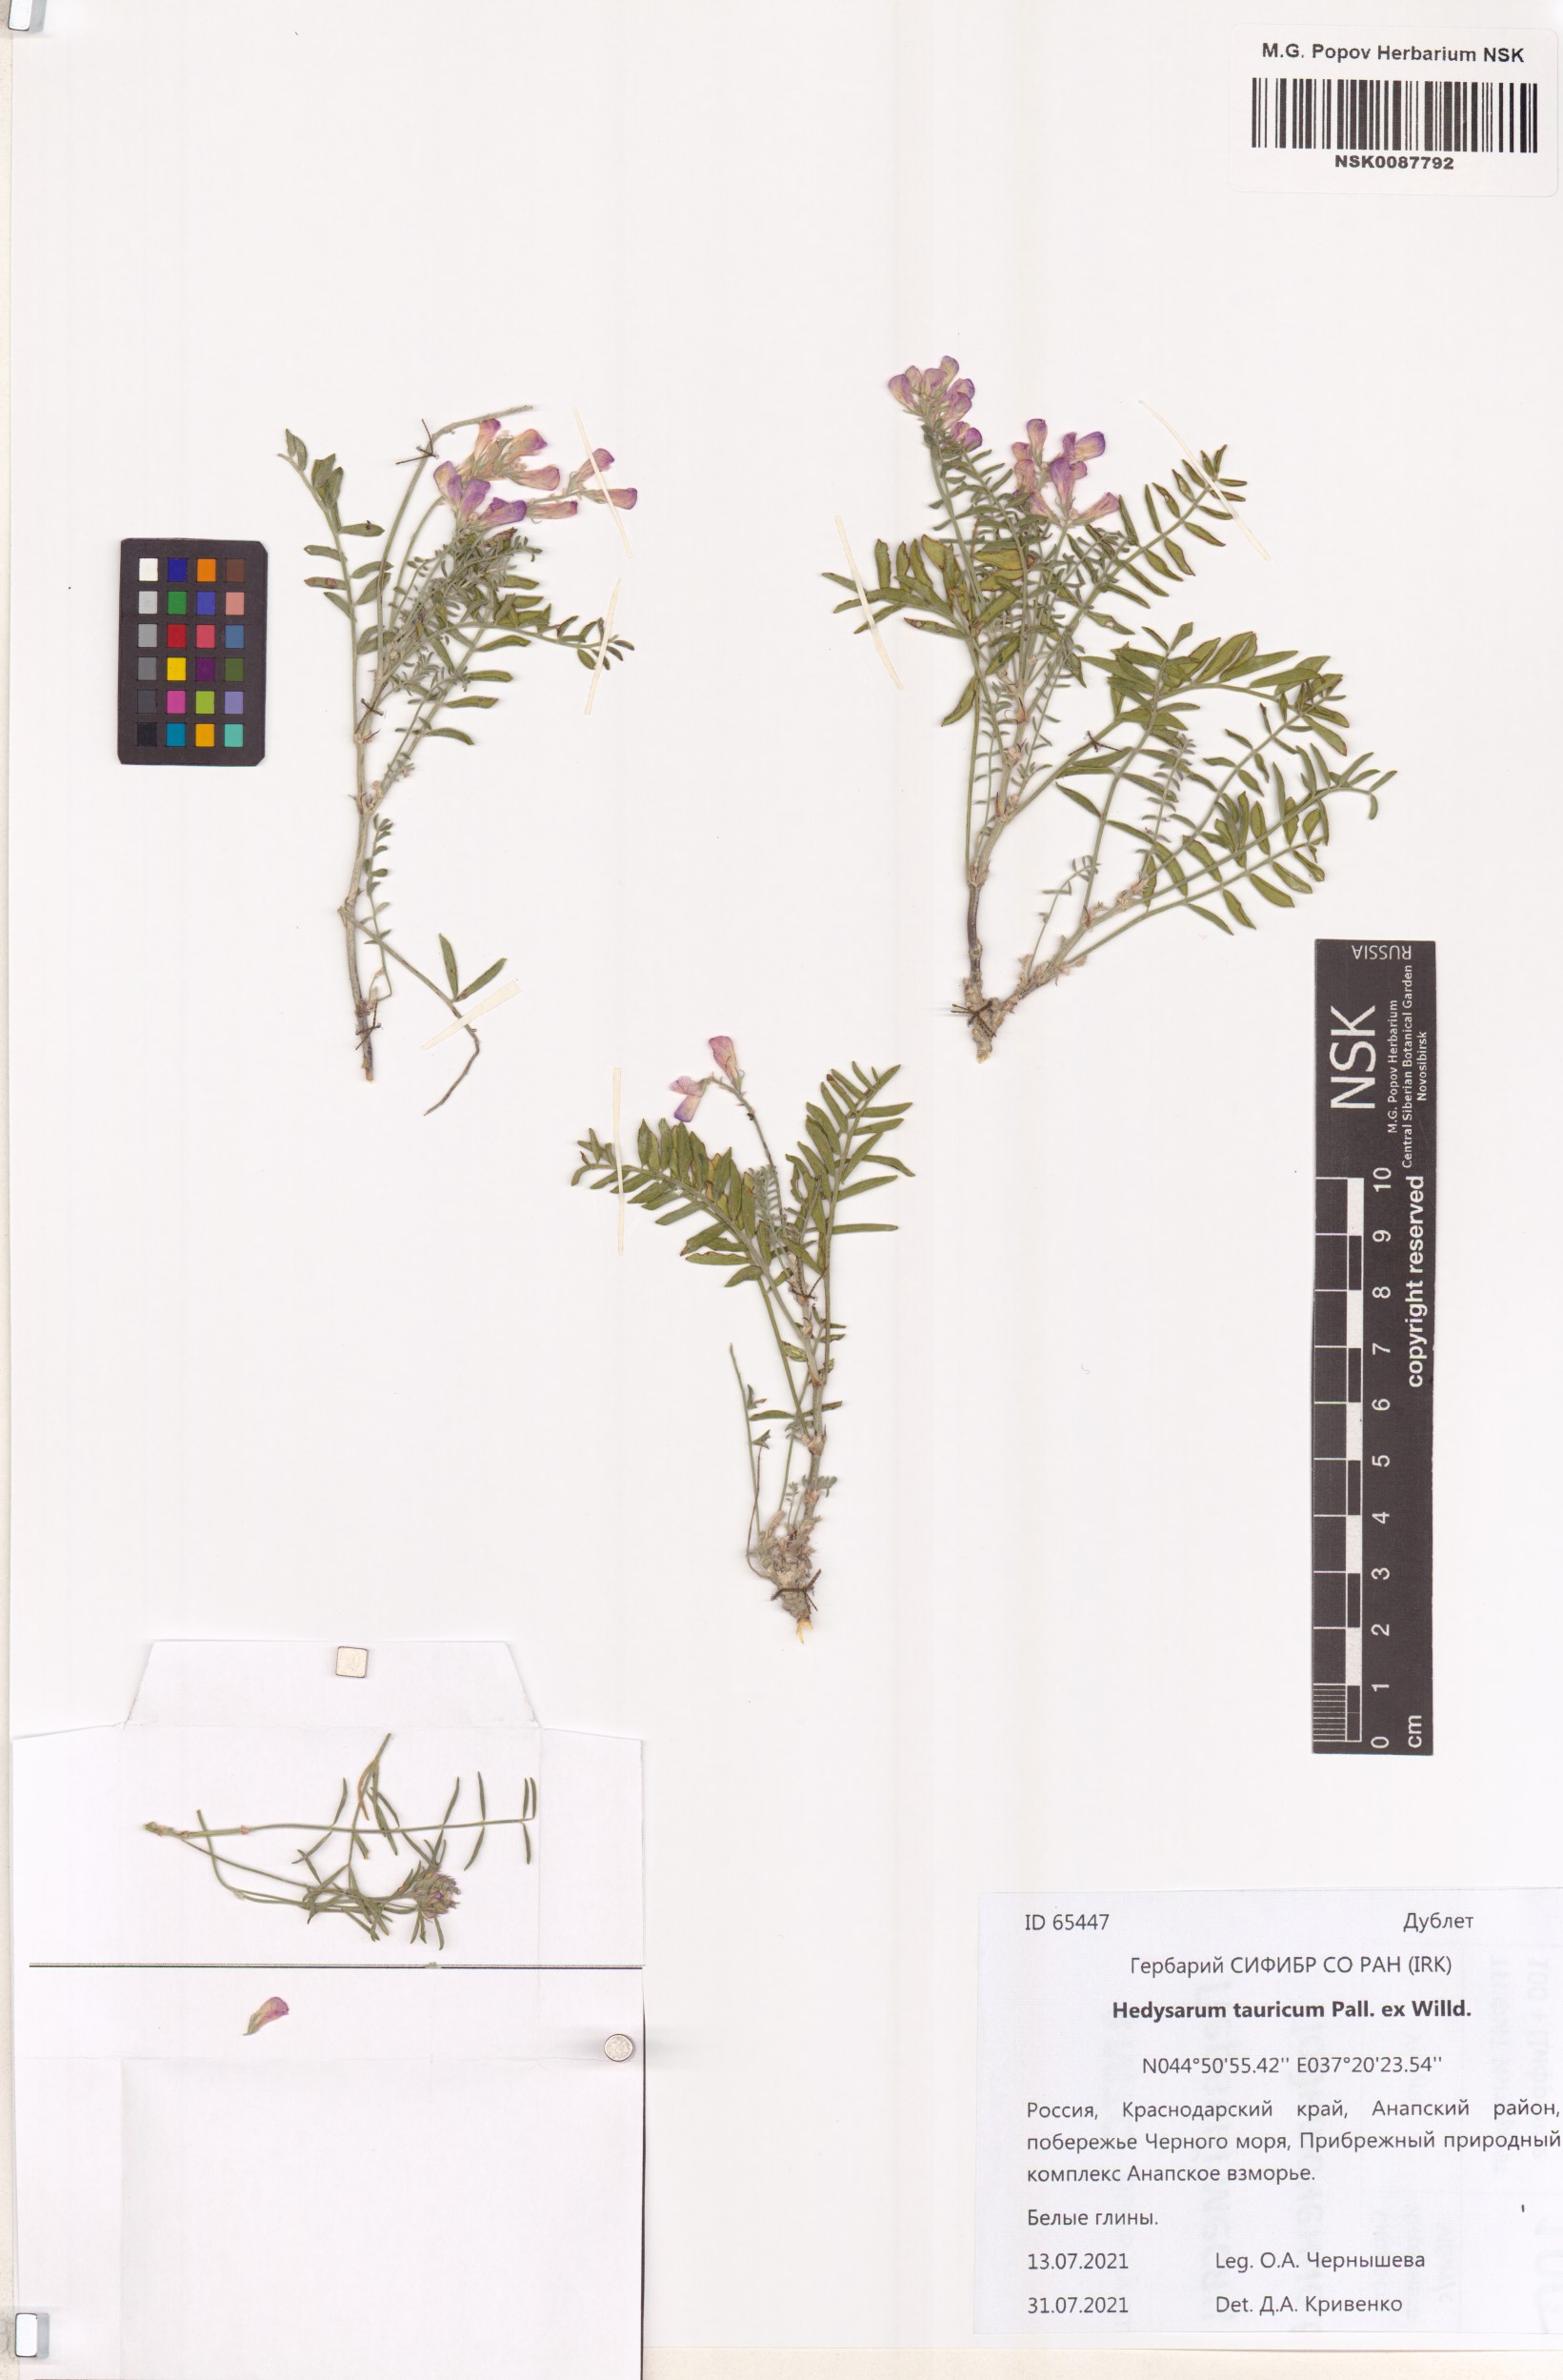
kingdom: Plantae
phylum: Tracheophyta
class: Magnoliopsida
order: Fabales
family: Fabaceae
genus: Hedysarum
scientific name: Hedysarum tauricum
